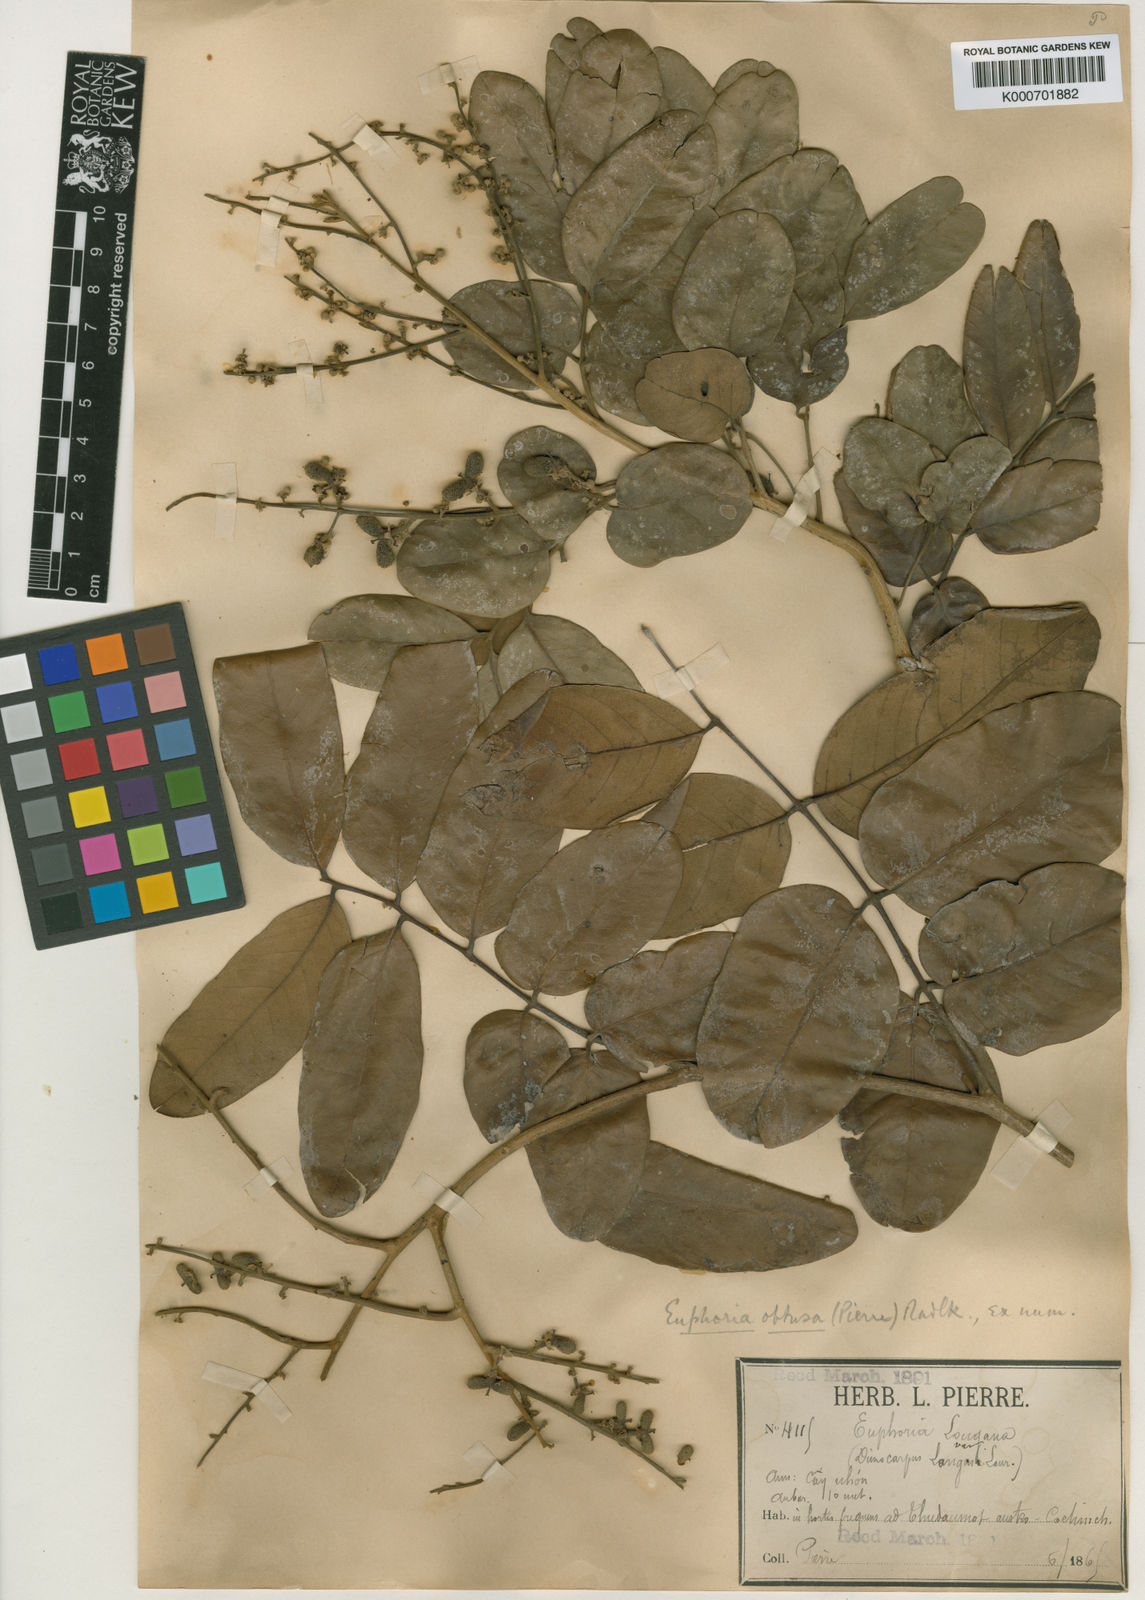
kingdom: Plantae
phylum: Tracheophyta
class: Magnoliopsida
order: Sapindales
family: Sapindaceae
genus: Dimocarpus
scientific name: Dimocarpus longan
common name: Longan
